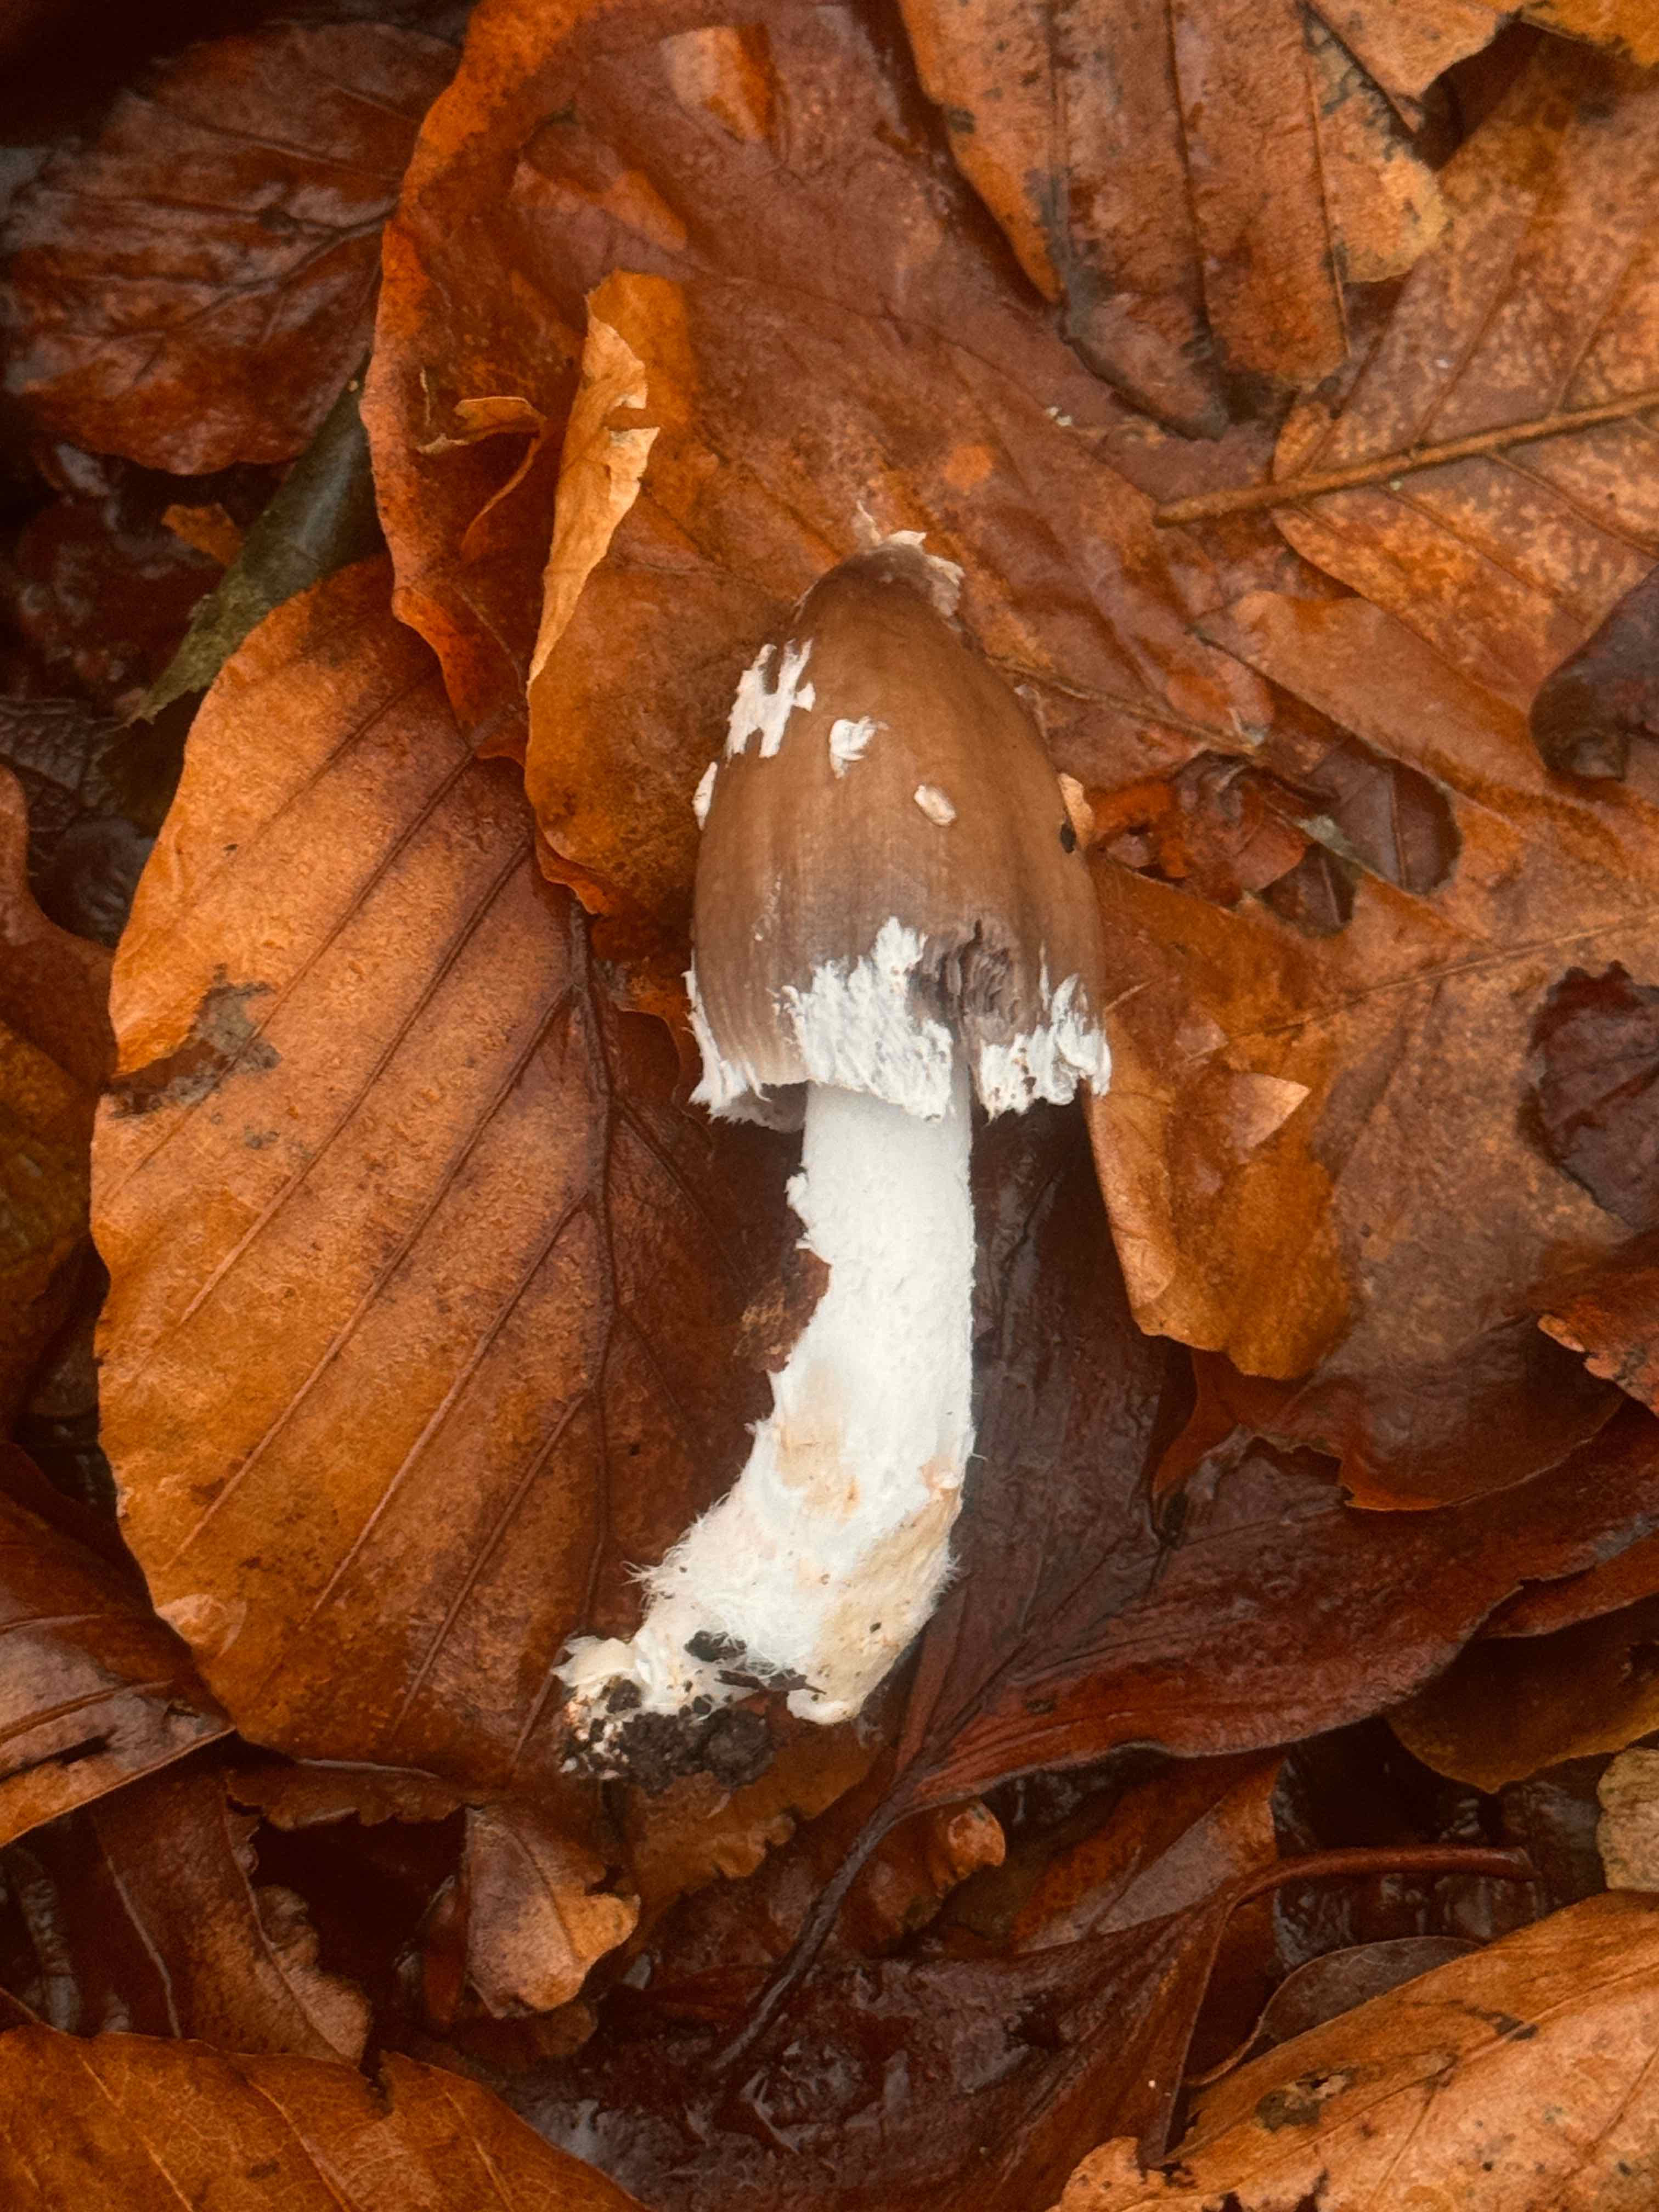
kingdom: Fungi
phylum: Basidiomycota
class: Agaricomycetes
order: Agaricales
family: Psathyrellaceae
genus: Coprinopsis
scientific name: Coprinopsis picacea
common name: skade-blækhat
